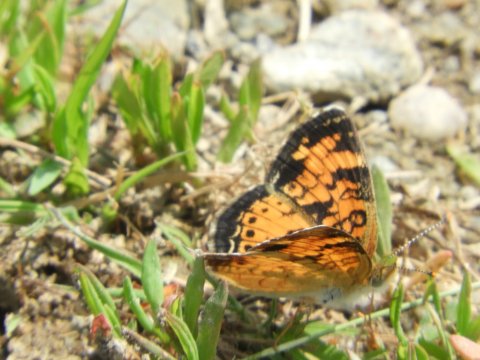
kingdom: Animalia
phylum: Arthropoda
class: Insecta
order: Lepidoptera
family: Nymphalidae
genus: Phyciodes
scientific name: Phyciodes
